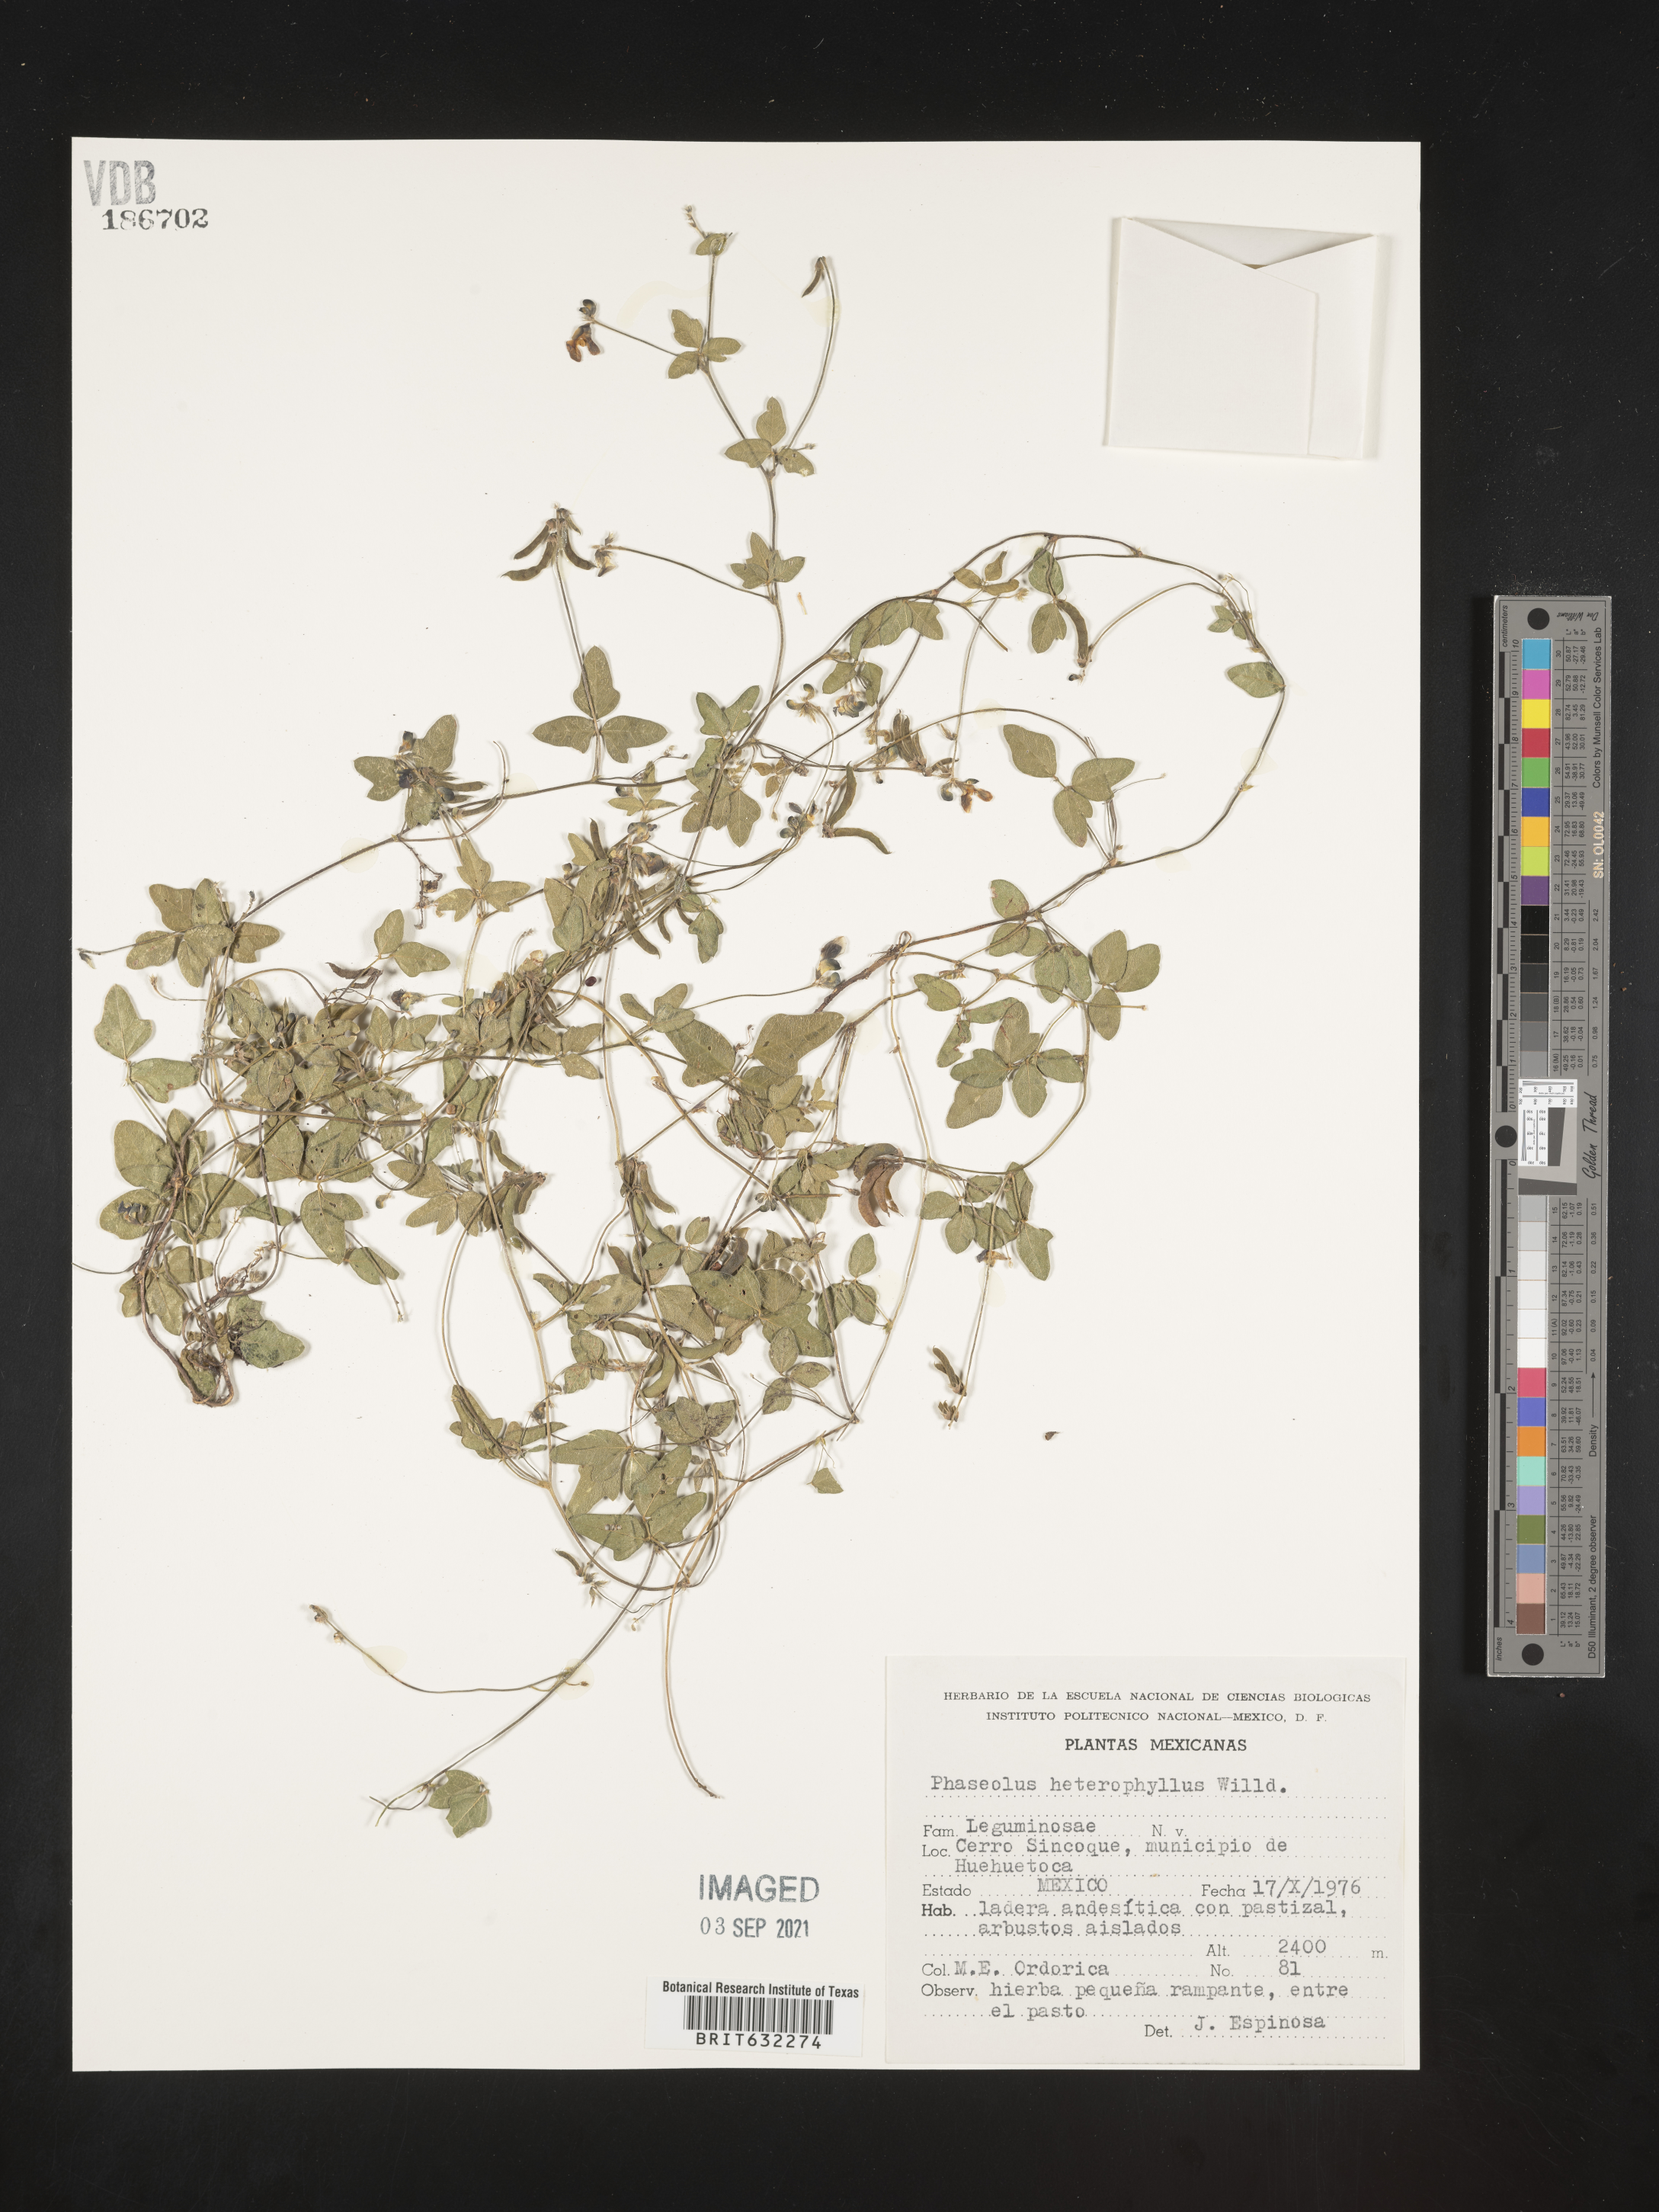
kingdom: Plantae
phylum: Tracheophyta
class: Magnoliopsida
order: Fabales
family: Fabaceae
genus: Phaseolus
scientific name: Phaseolus
